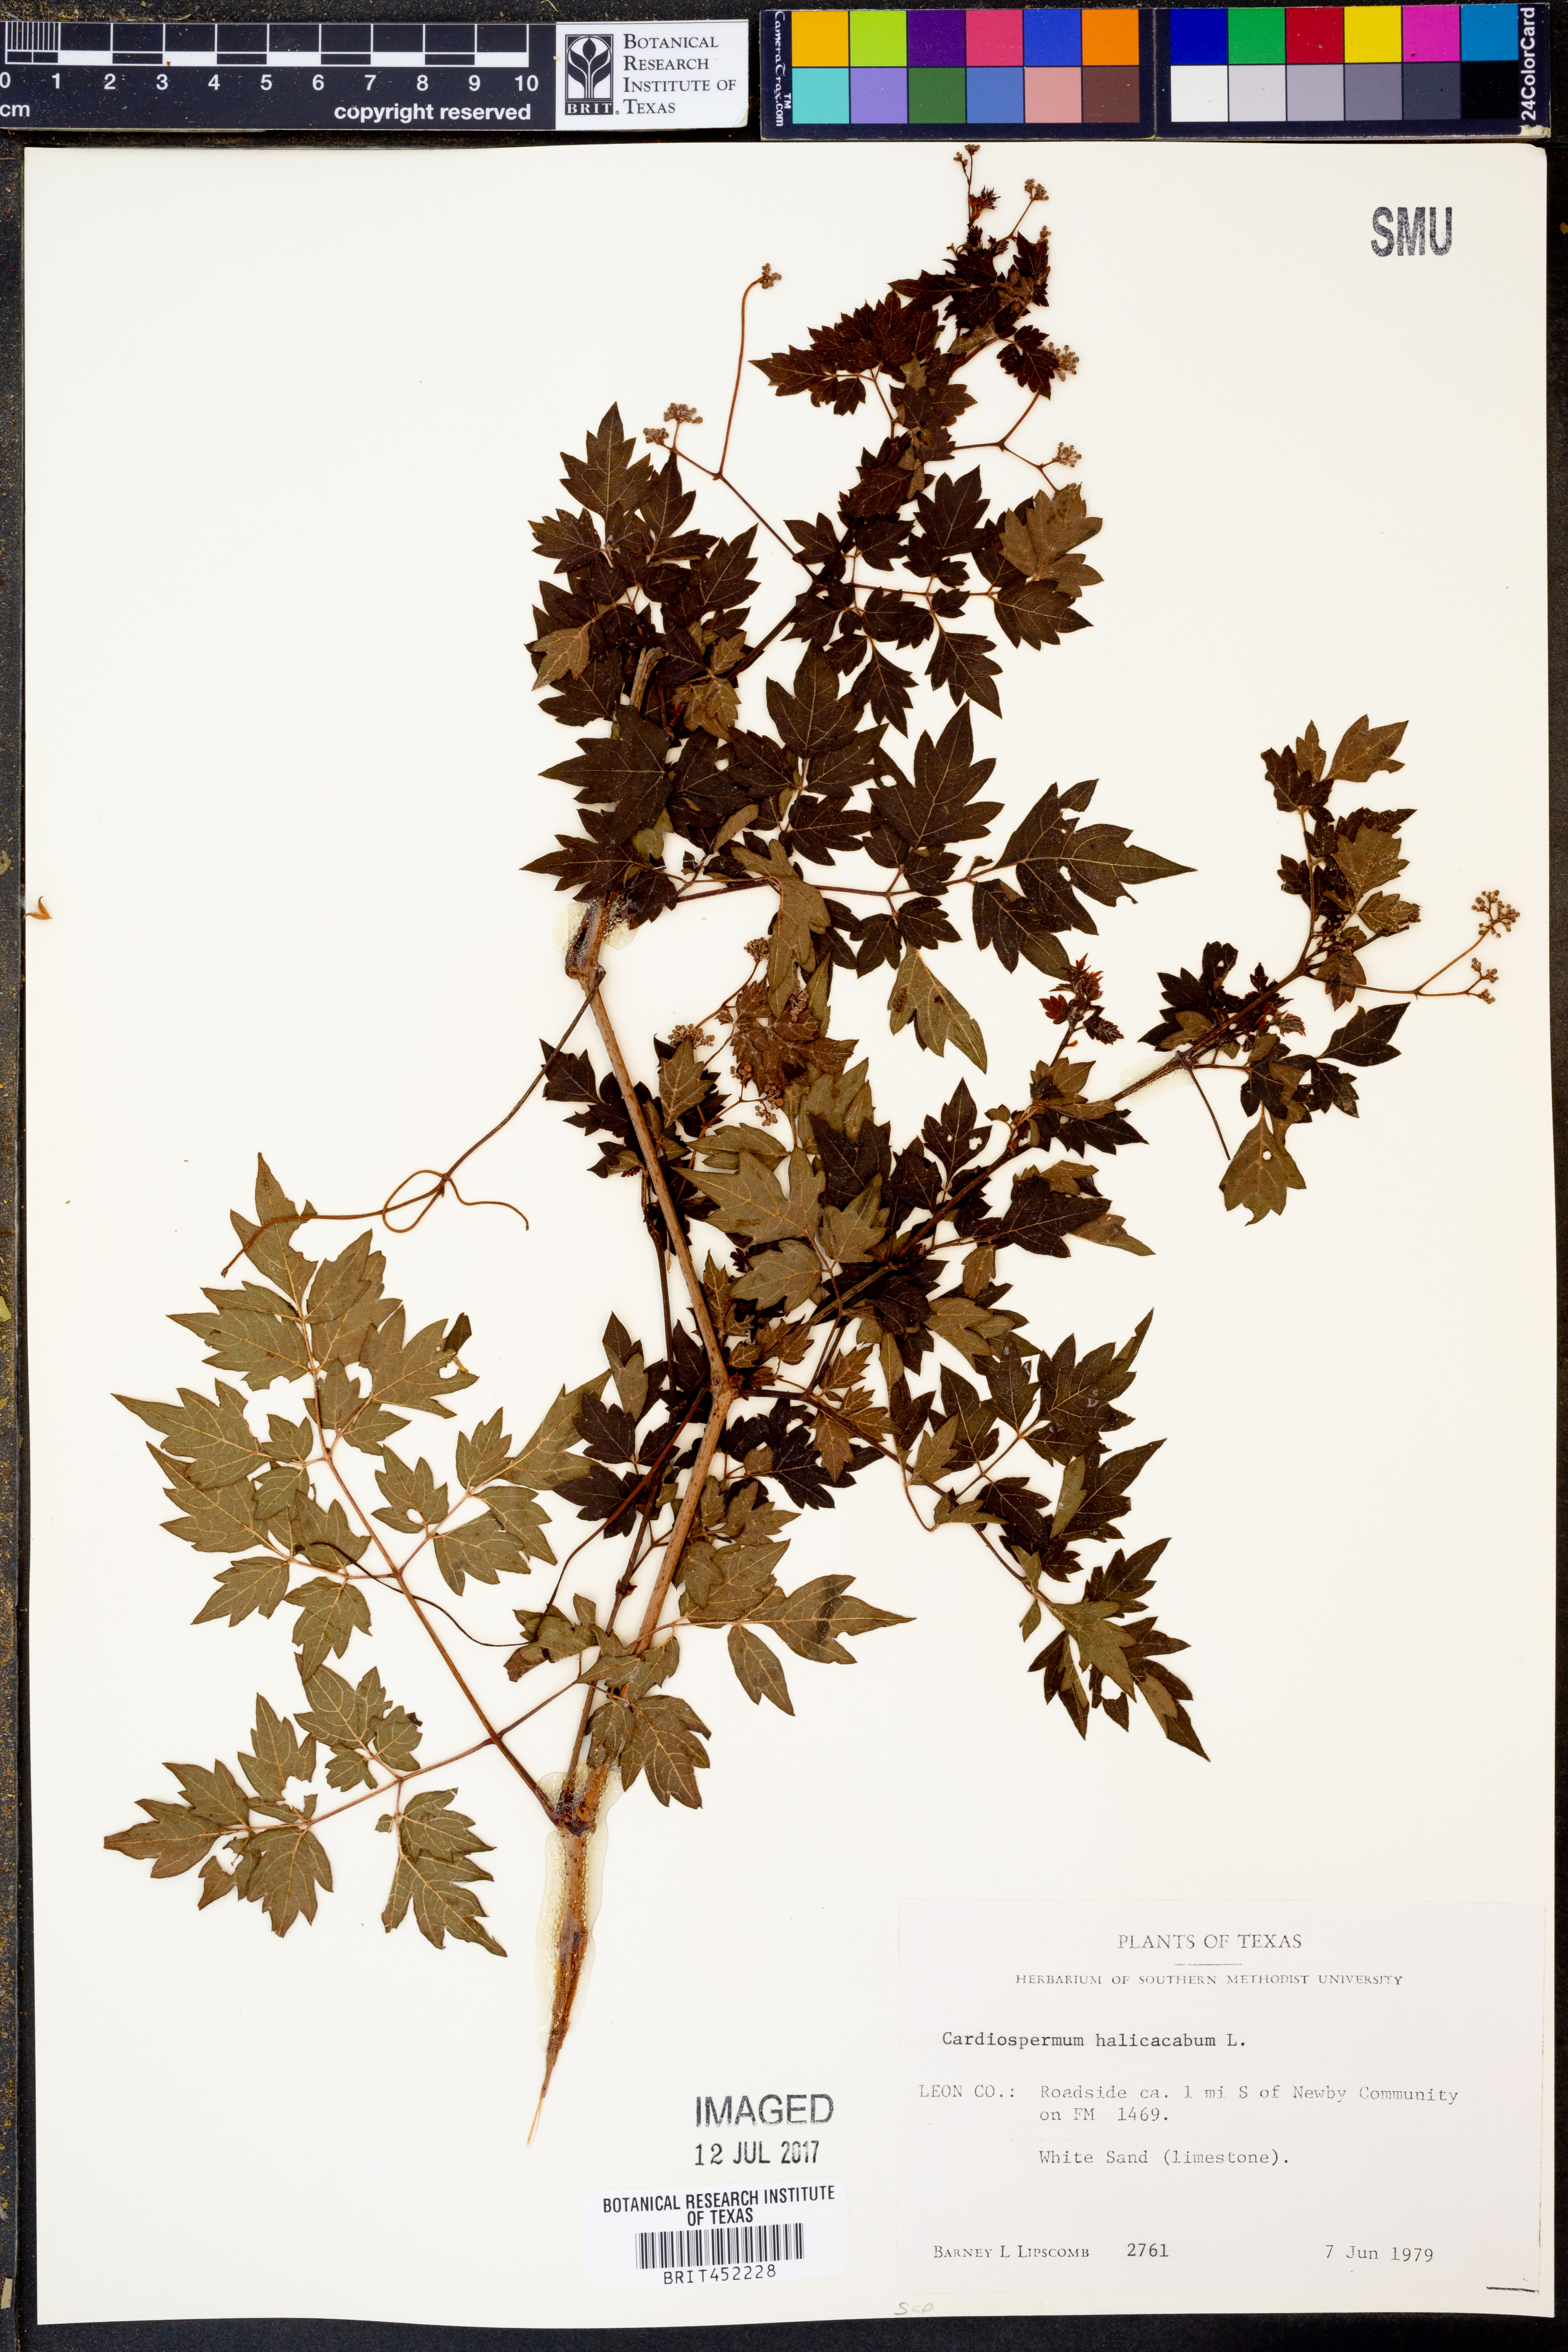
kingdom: Plantae
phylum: Tracheophyta
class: Magnoliopsida
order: Sapindales
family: Sapindaceae
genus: Cardiospermum
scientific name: Cardiospermum halicacabum
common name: Balloon vine
